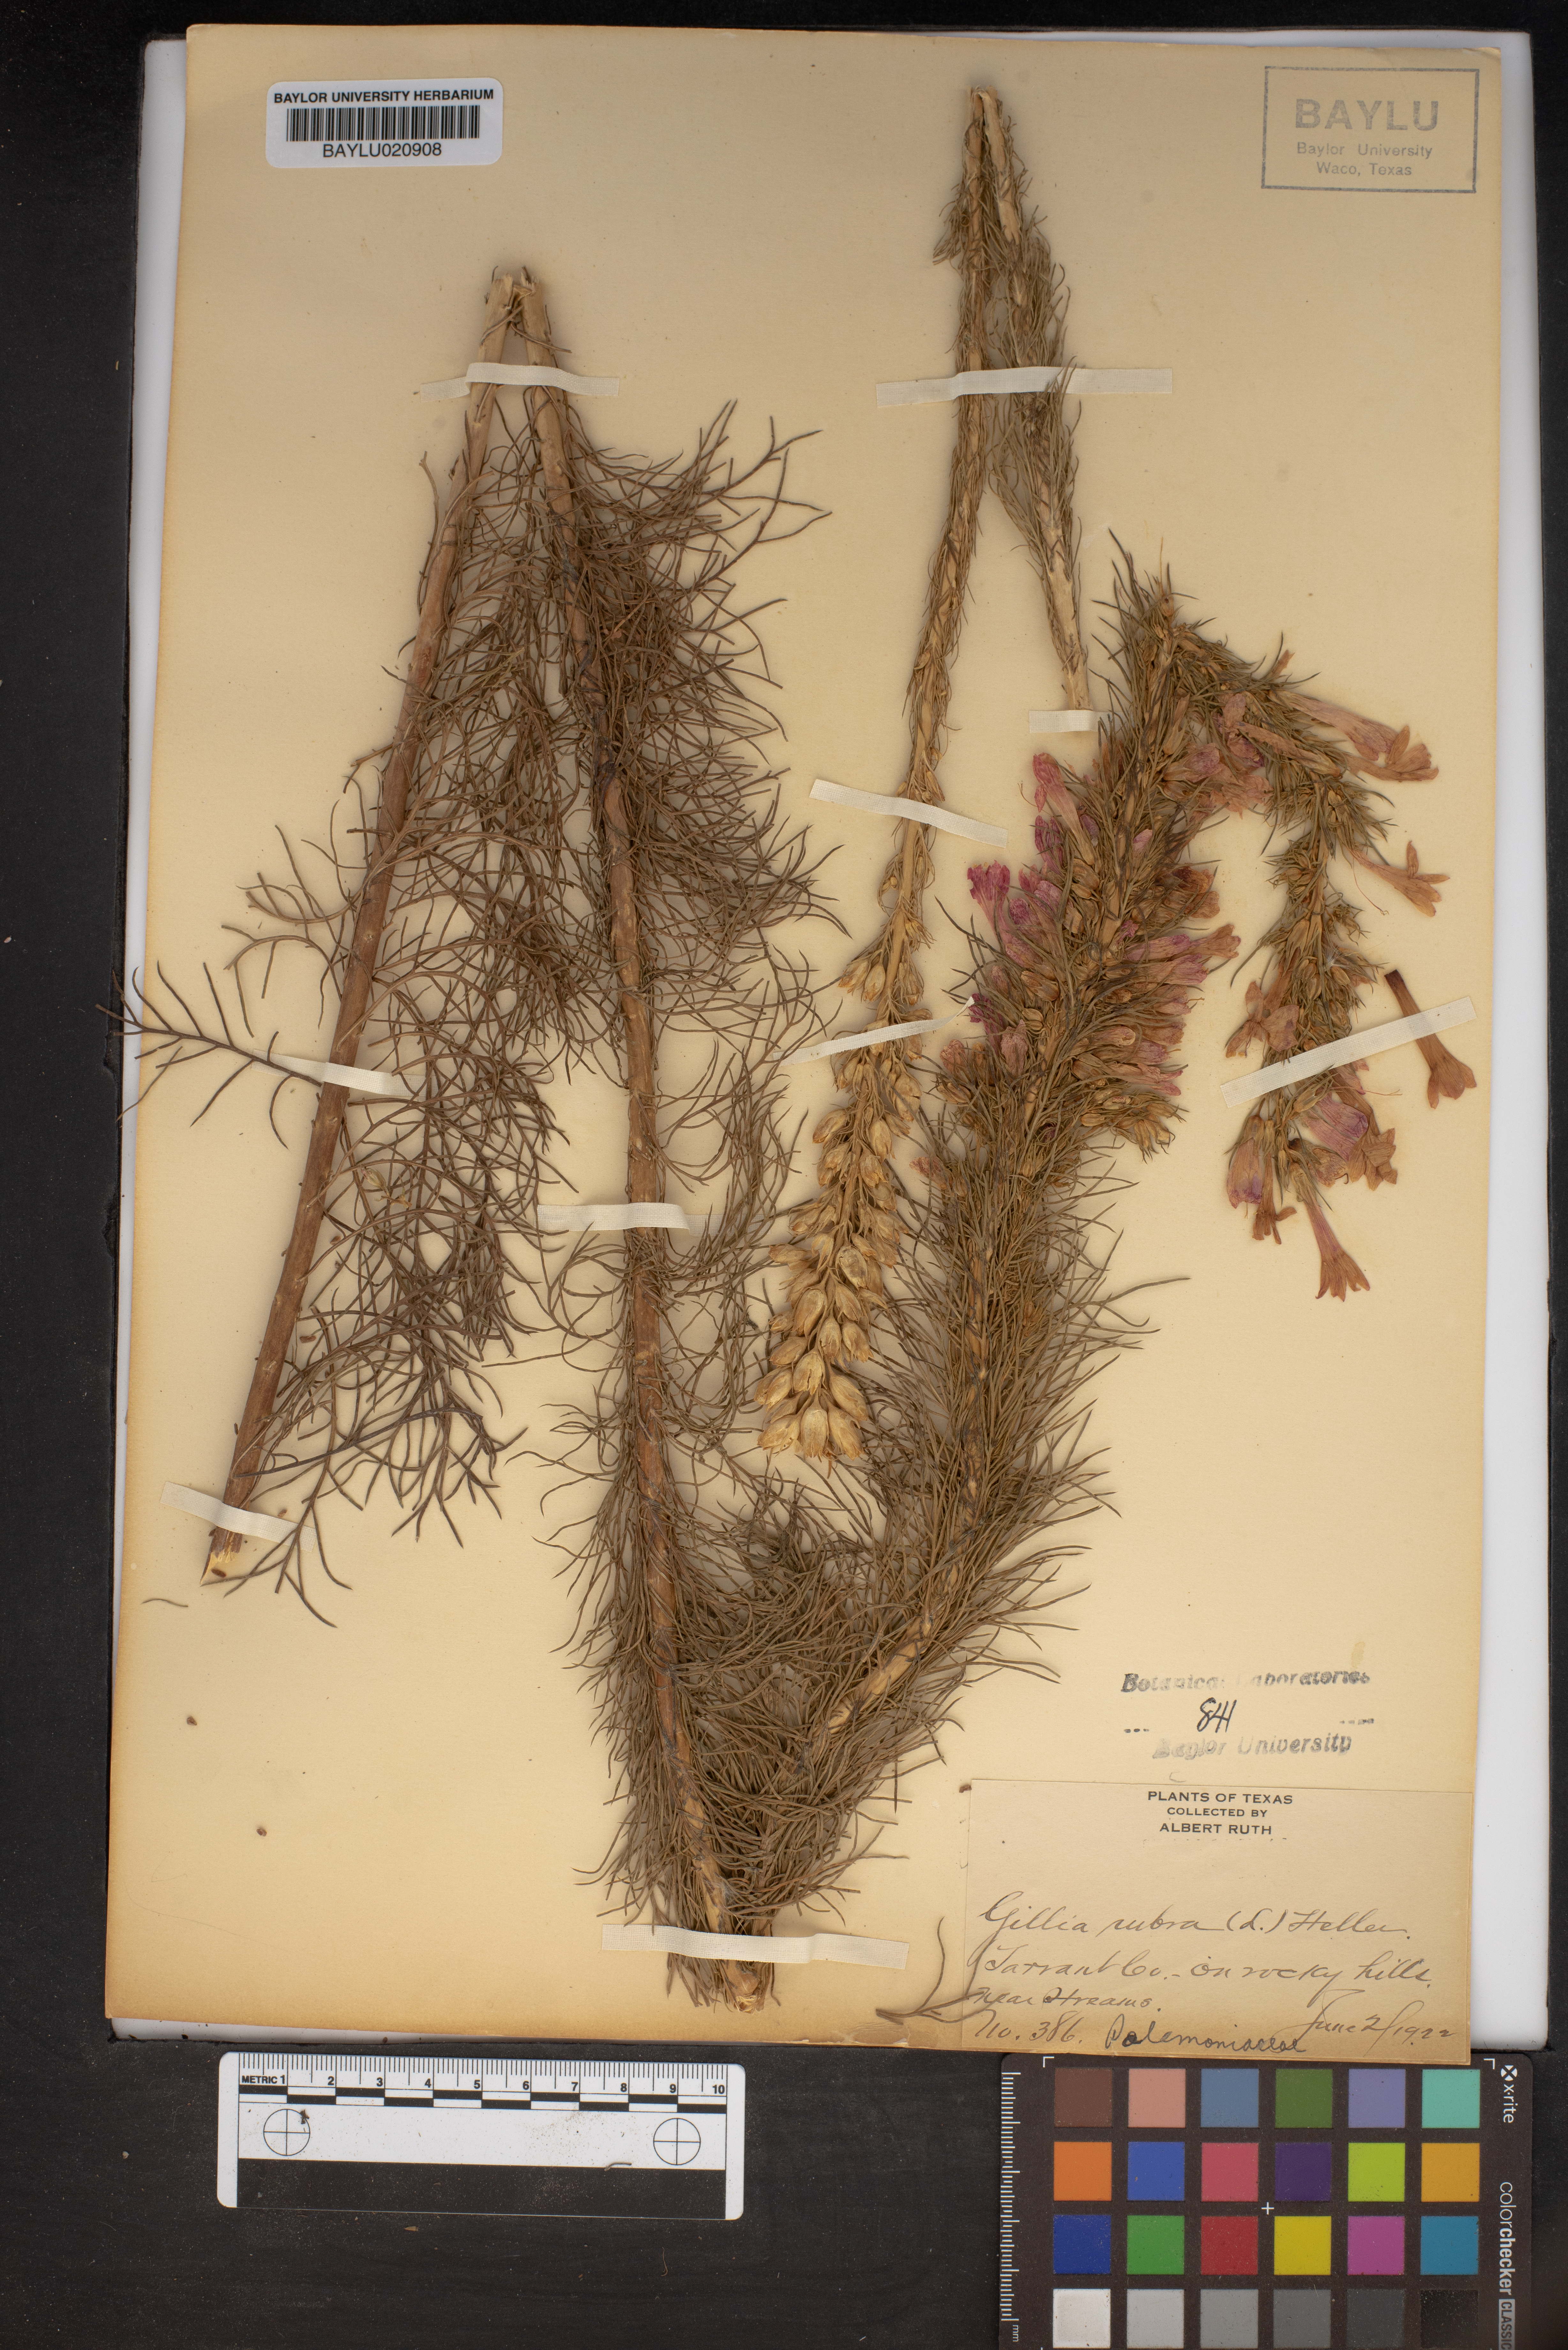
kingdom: Plantae
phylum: Tracheophyta
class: Magnoliopsida
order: Ericales
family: Polemoniaceae
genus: Ipomopsis
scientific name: Ipomopsis rubra
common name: Skyrocket
